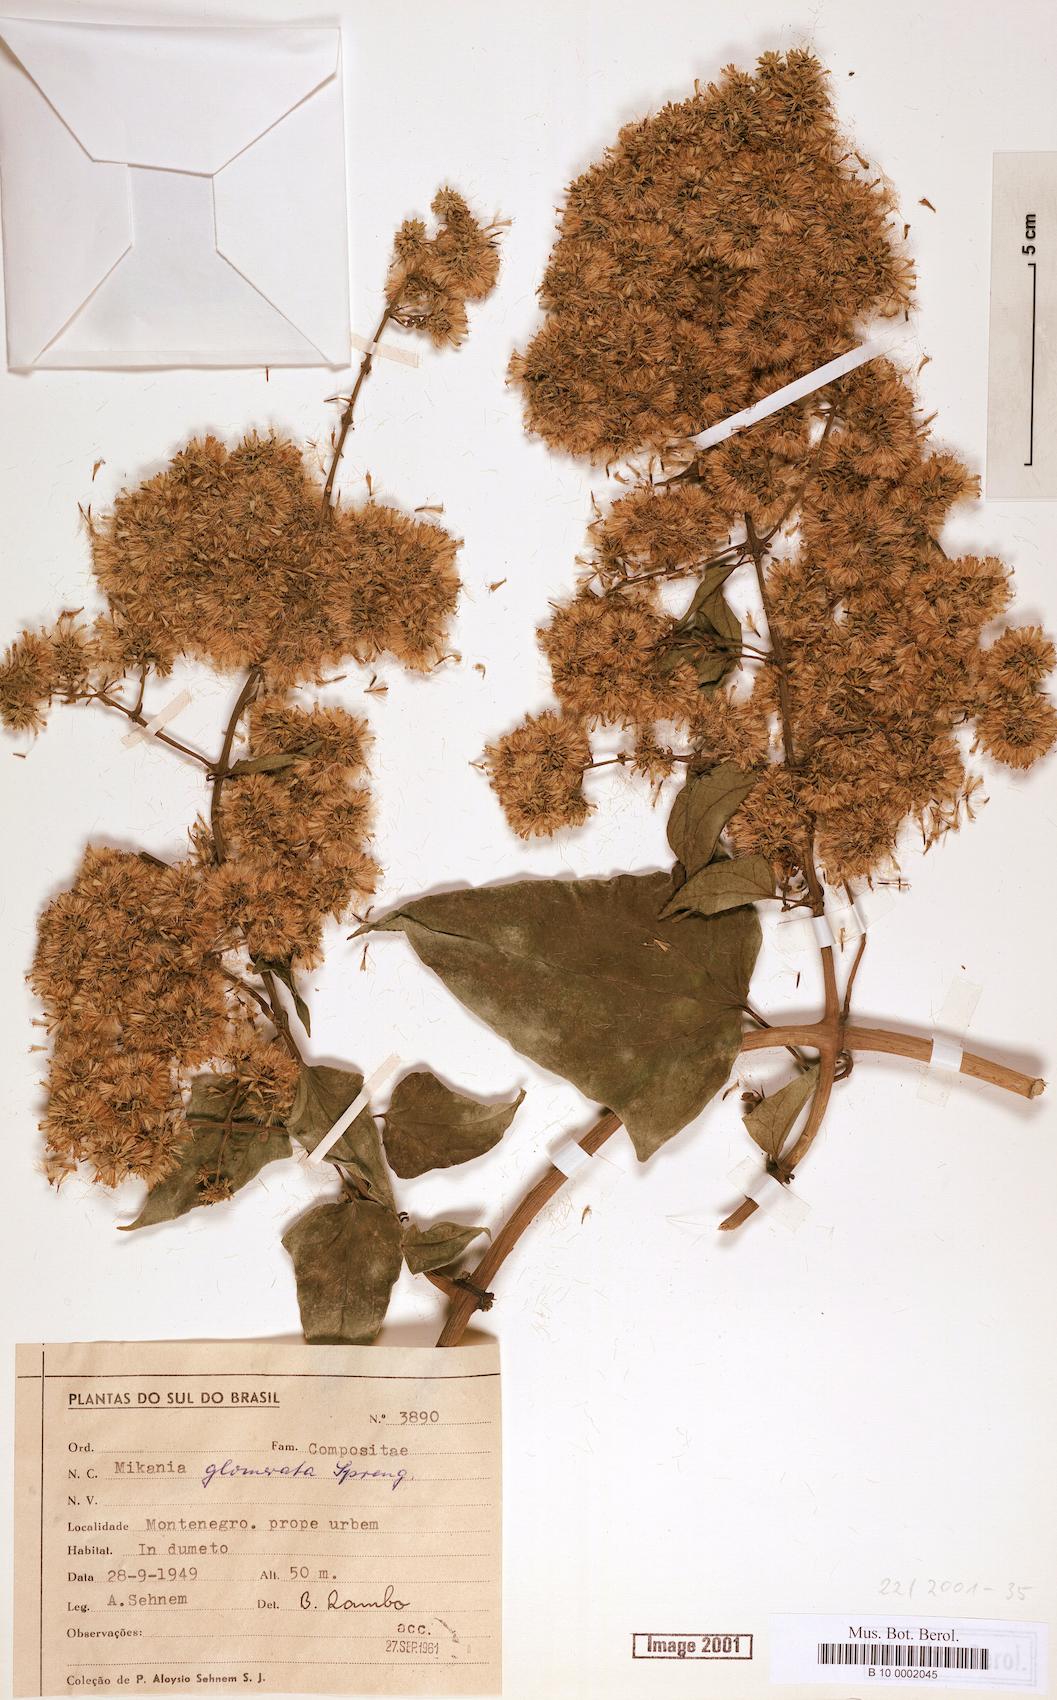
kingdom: Plantae
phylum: Tracheophyta
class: Magnoliopsida
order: Asterales
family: Asteraceae
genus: Mikania
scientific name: Mikania glomerata
